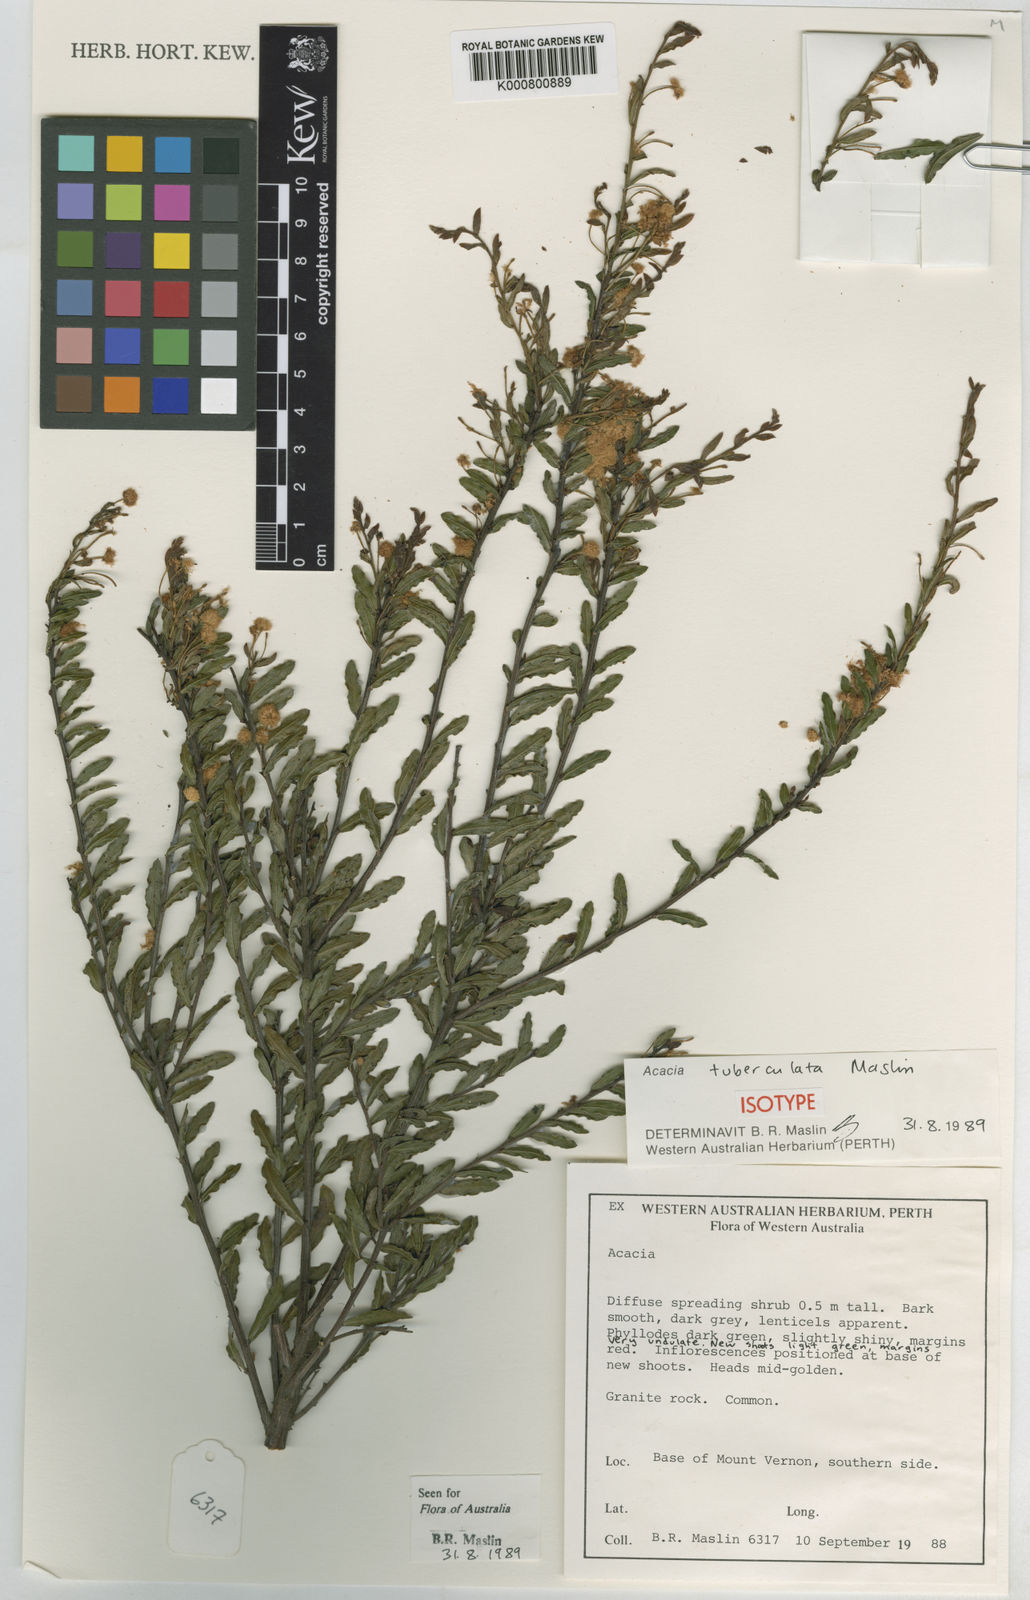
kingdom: Plantae
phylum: Tracheophyta
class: Magnoliopsida
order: Fabales
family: Fabaceae
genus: Acacia
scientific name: Acacia tuberculata
